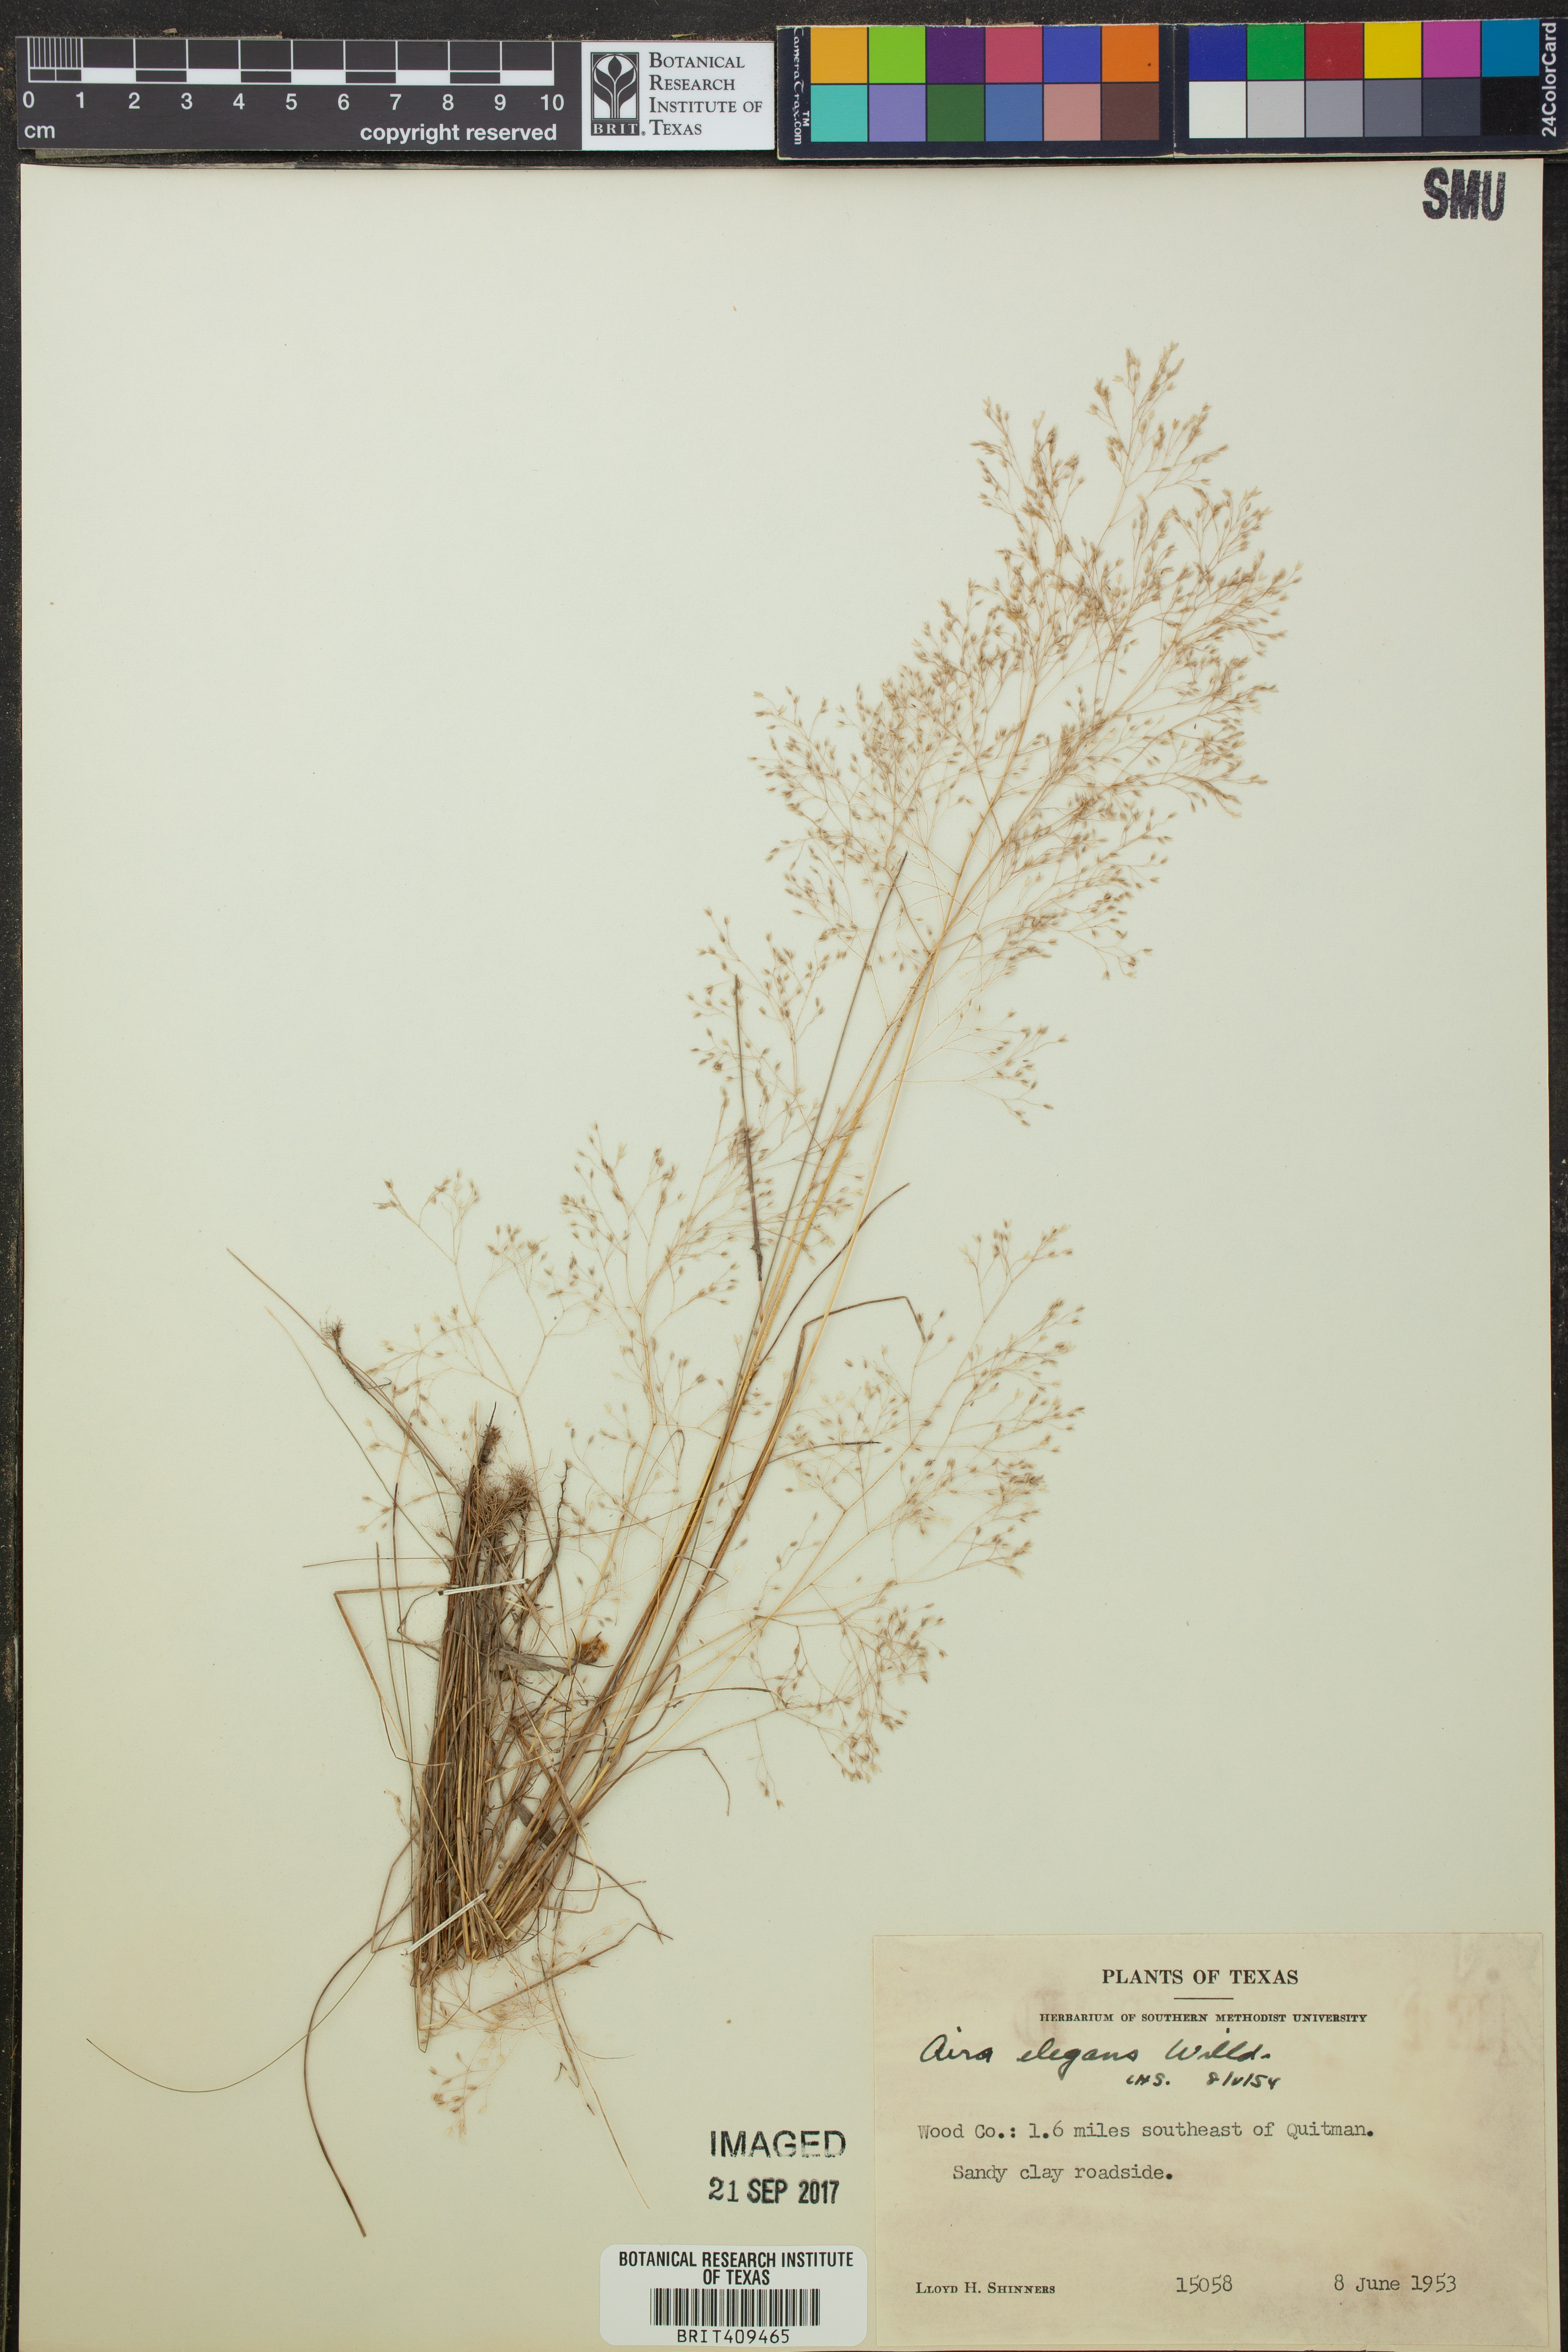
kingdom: Plantae
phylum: Tracheophyta
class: Liliopsida
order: Poales
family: Poaceae
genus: Aira
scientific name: Aira elegans
